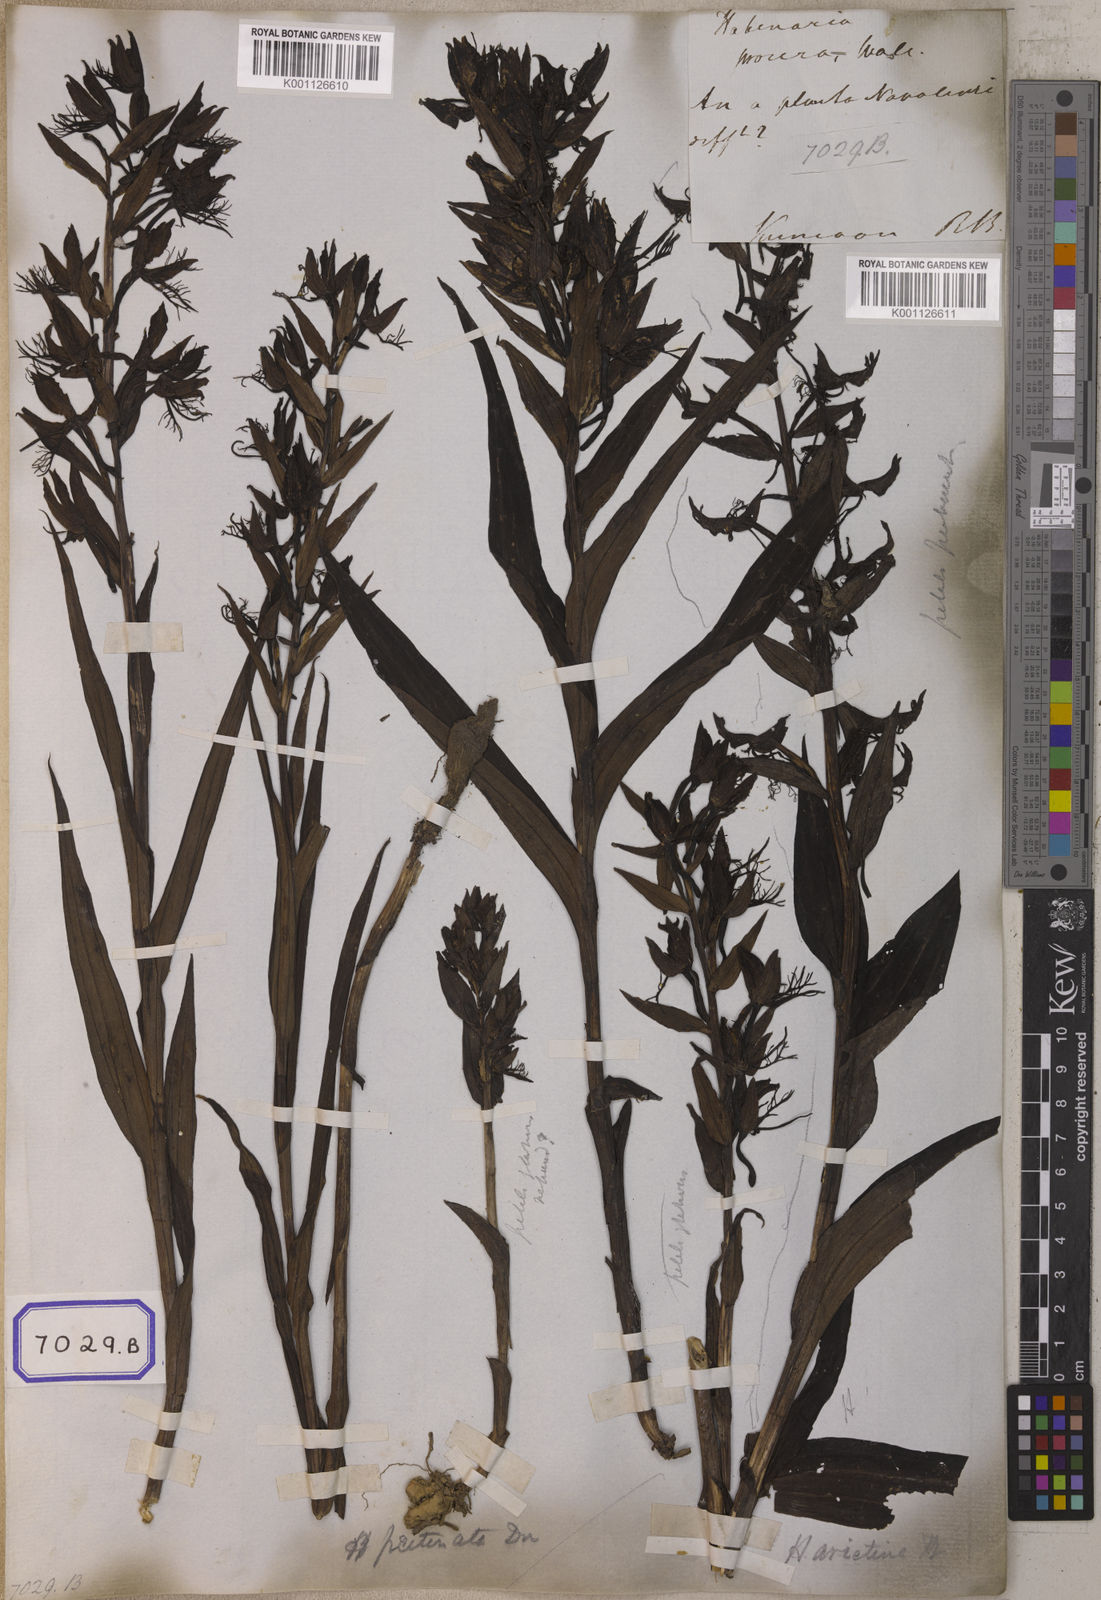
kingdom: Plantae
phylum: Tracheophyta
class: Liliopsida
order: Asparagales
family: Orchidaceae
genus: Habenaria
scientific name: Habenaria pectinata
